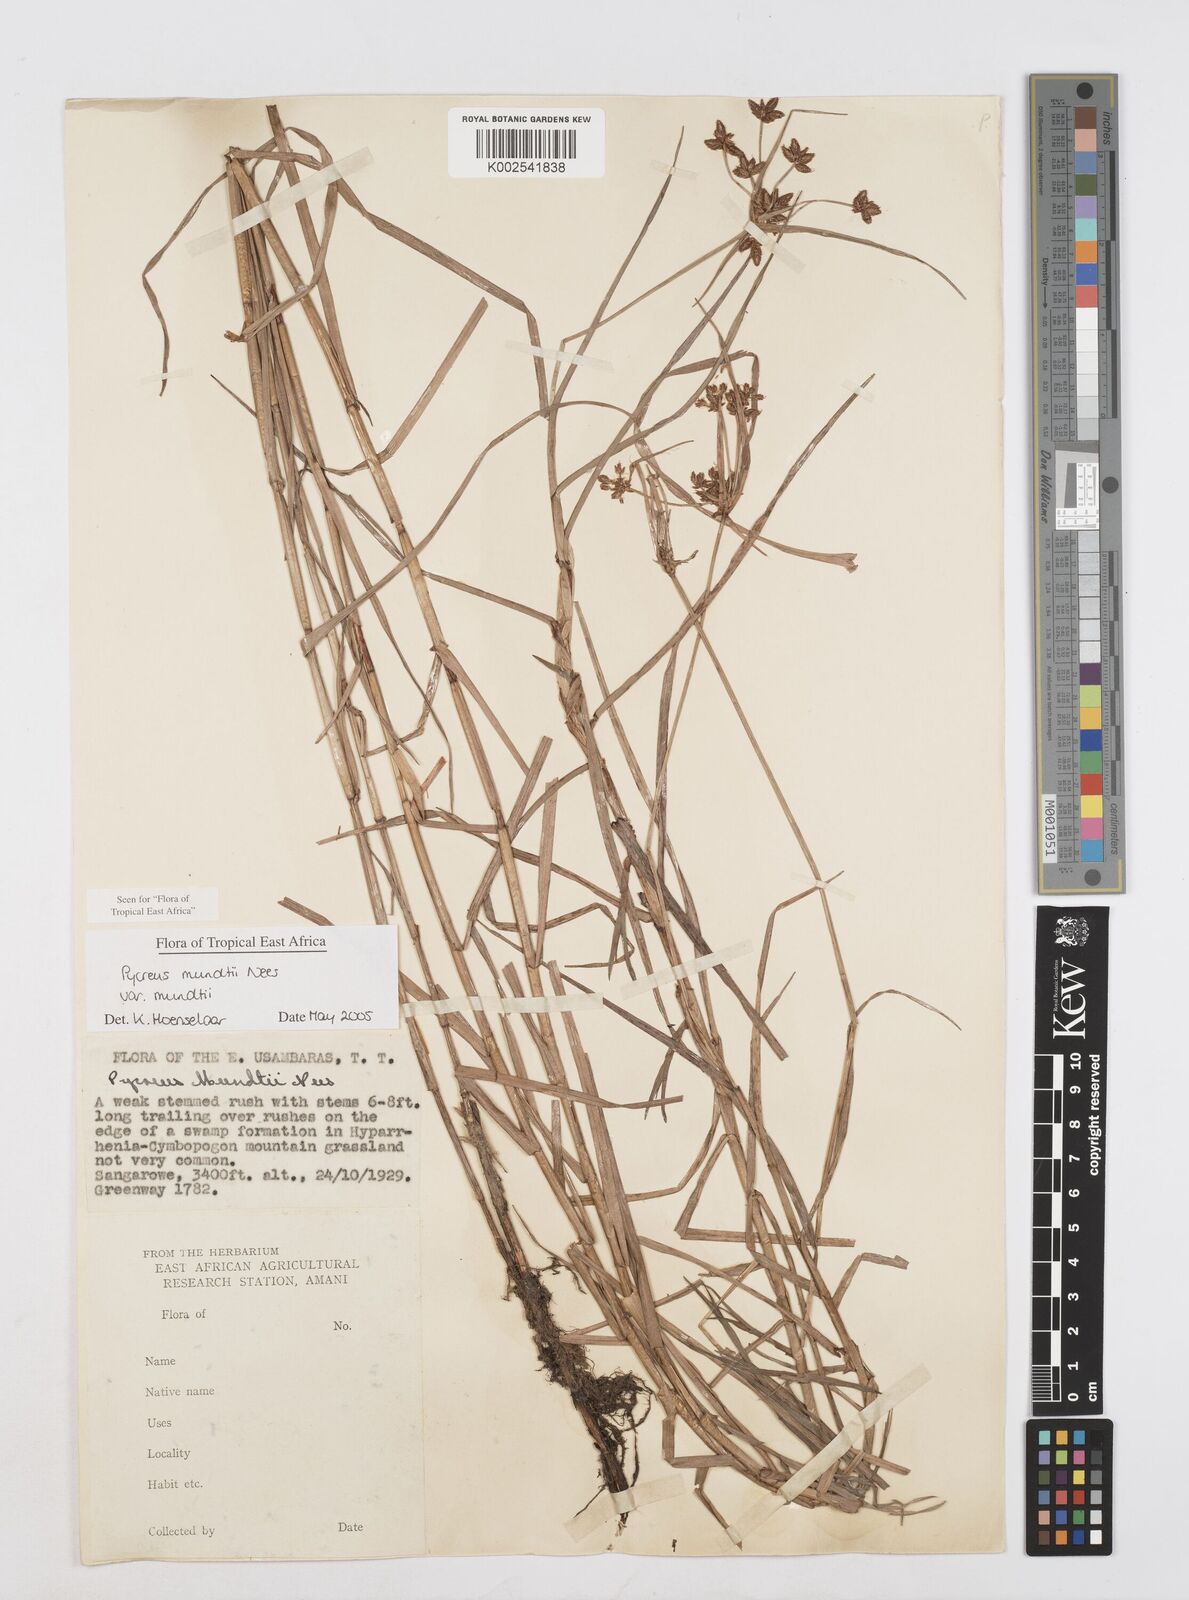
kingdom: Plantae
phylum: Tracheophyta
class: Liliopsida
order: Poales
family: Cyperaceae
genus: Cyperus
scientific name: Cyperus mundii
